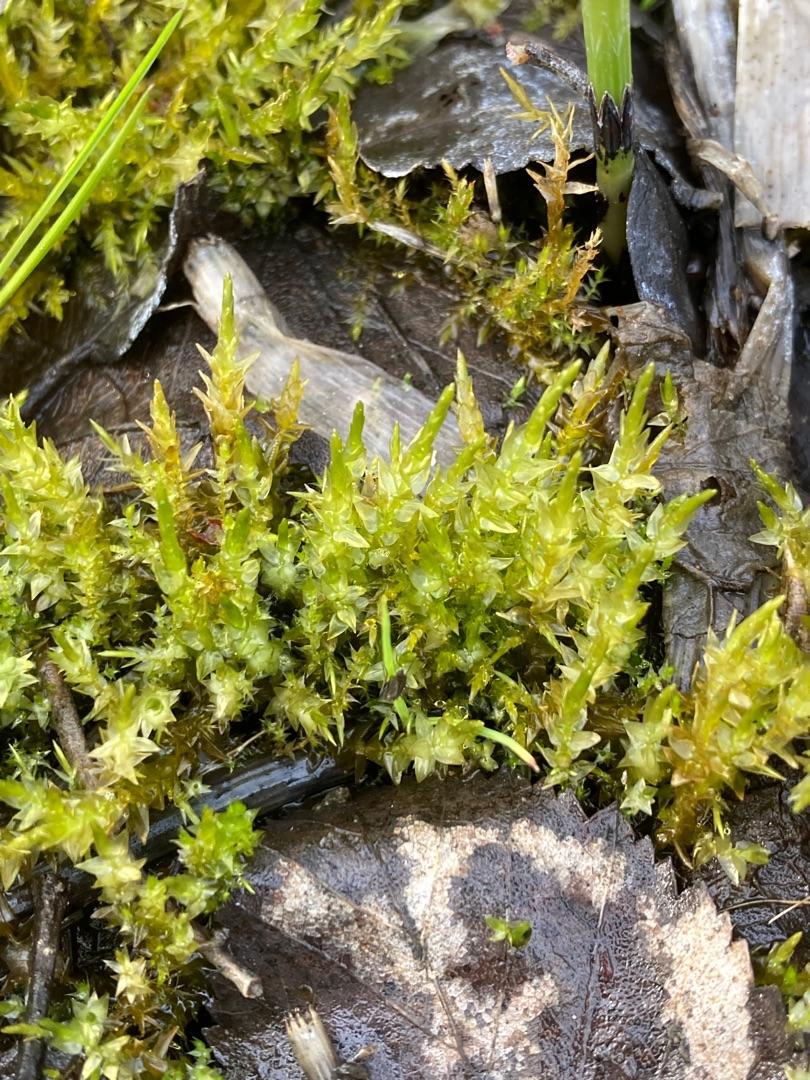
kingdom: Plantae
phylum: Bryophyta
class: Bryopsida
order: Hypnales
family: Calliergonaceae
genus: Calliergon
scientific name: Calliergon cordifolium
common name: Almindelig skebladsmos
